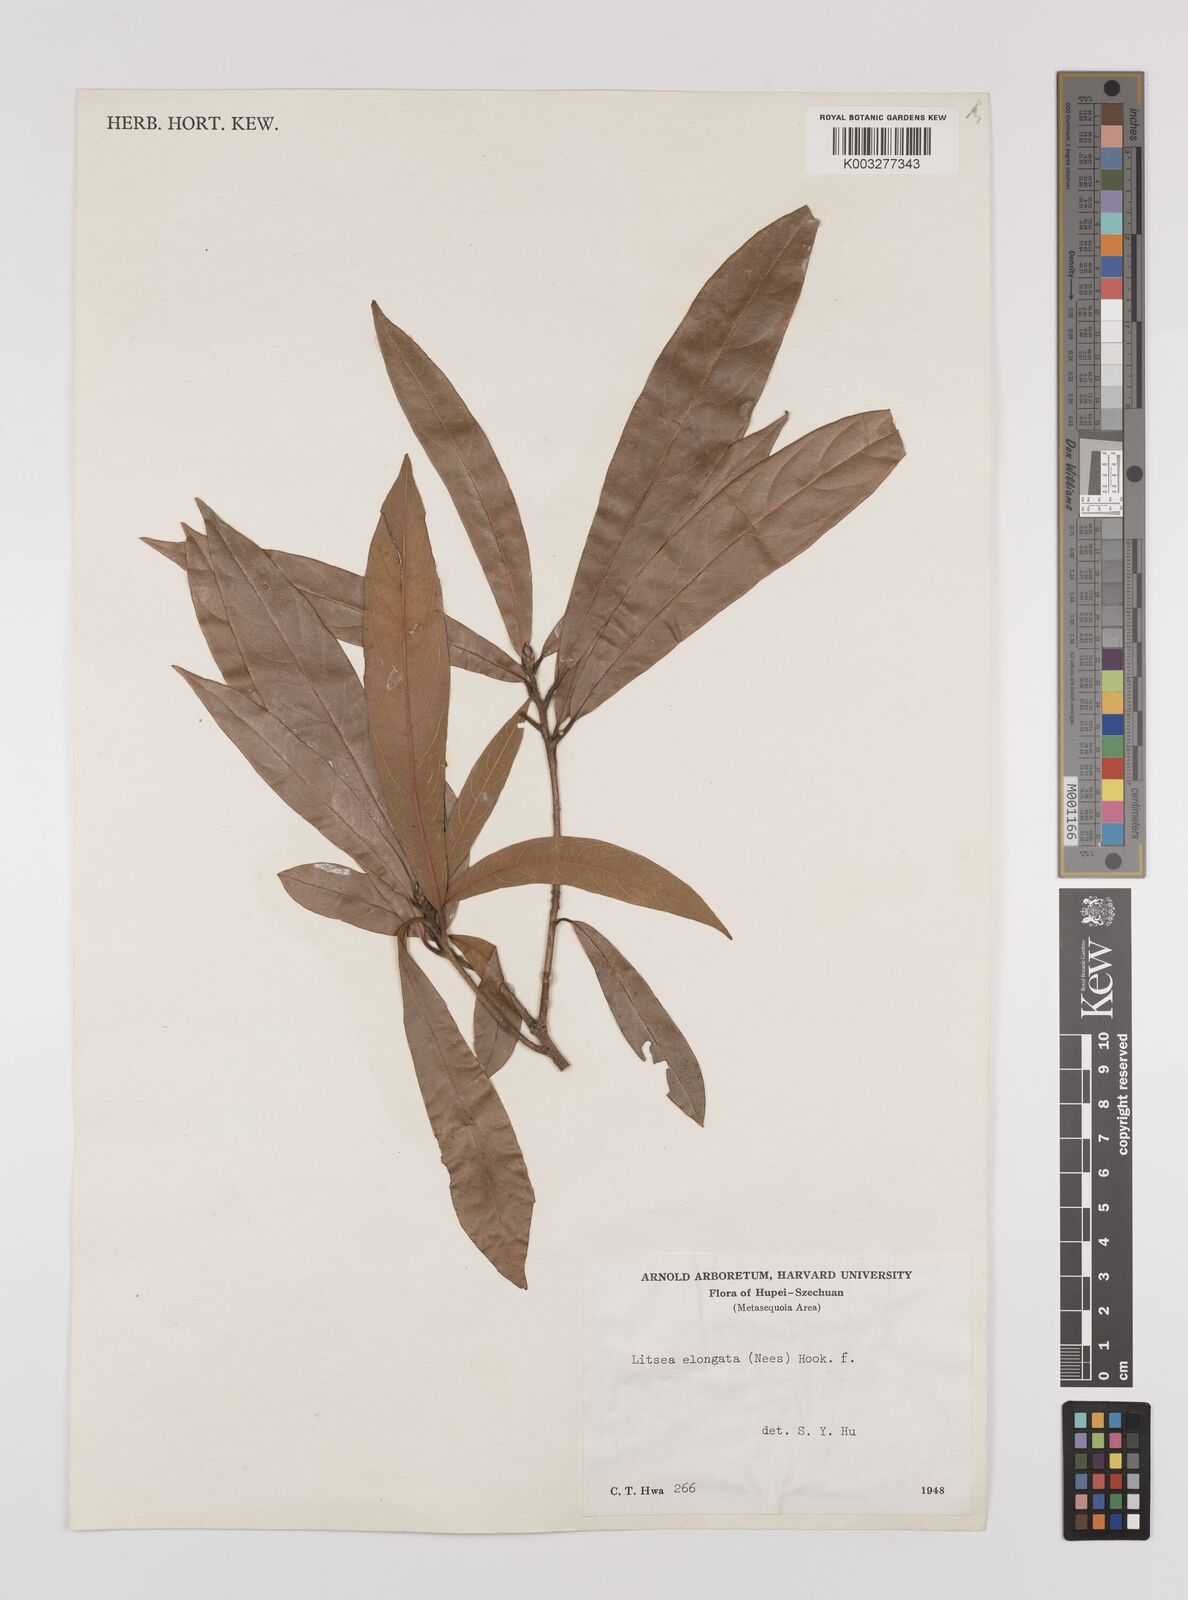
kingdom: Plantae
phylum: Tracheophyta
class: Magnoliopsida
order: Laurales
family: Lauraceae
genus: Litsea
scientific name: Litsea elongata
